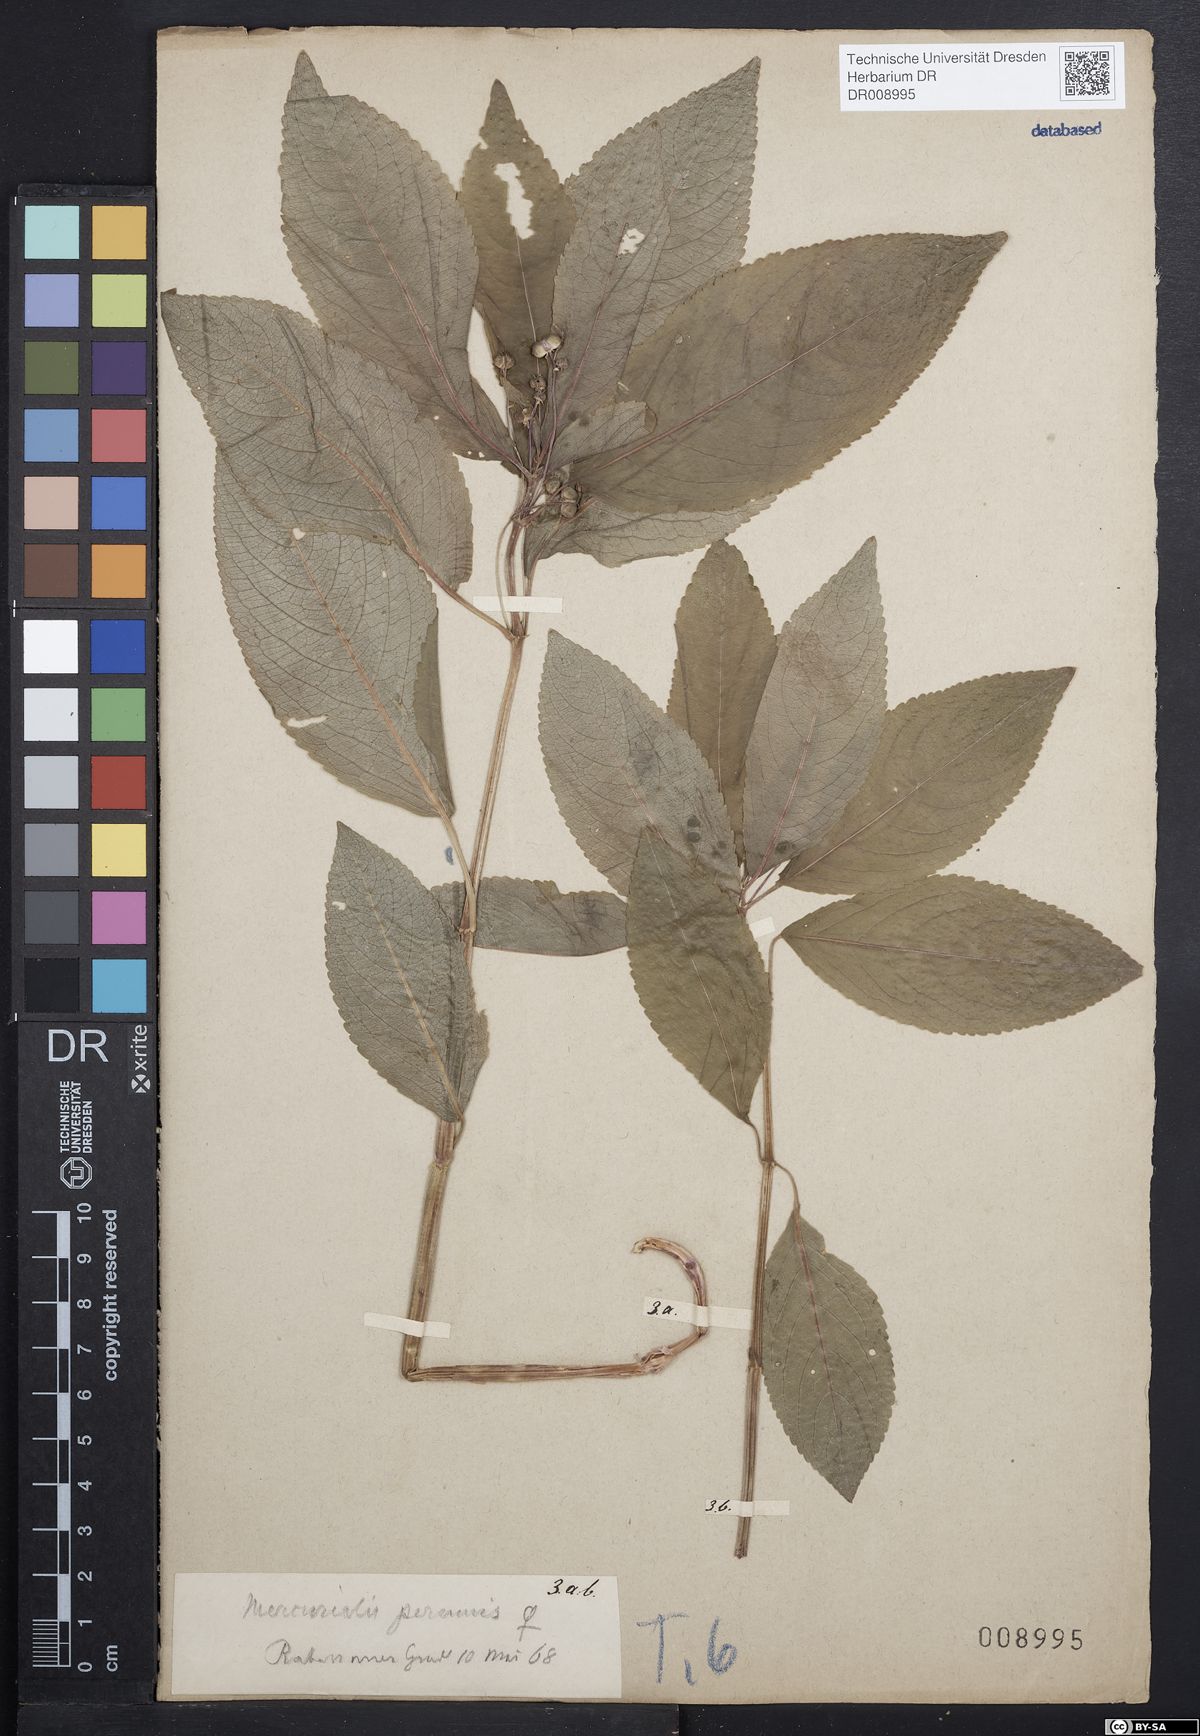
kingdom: Plantae
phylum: Tracheophyta
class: Magnoliopsida
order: Malpighiales
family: Euphorbiaceae
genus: Mercurialis
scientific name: Mercurialis perennis
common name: Dog mercury
